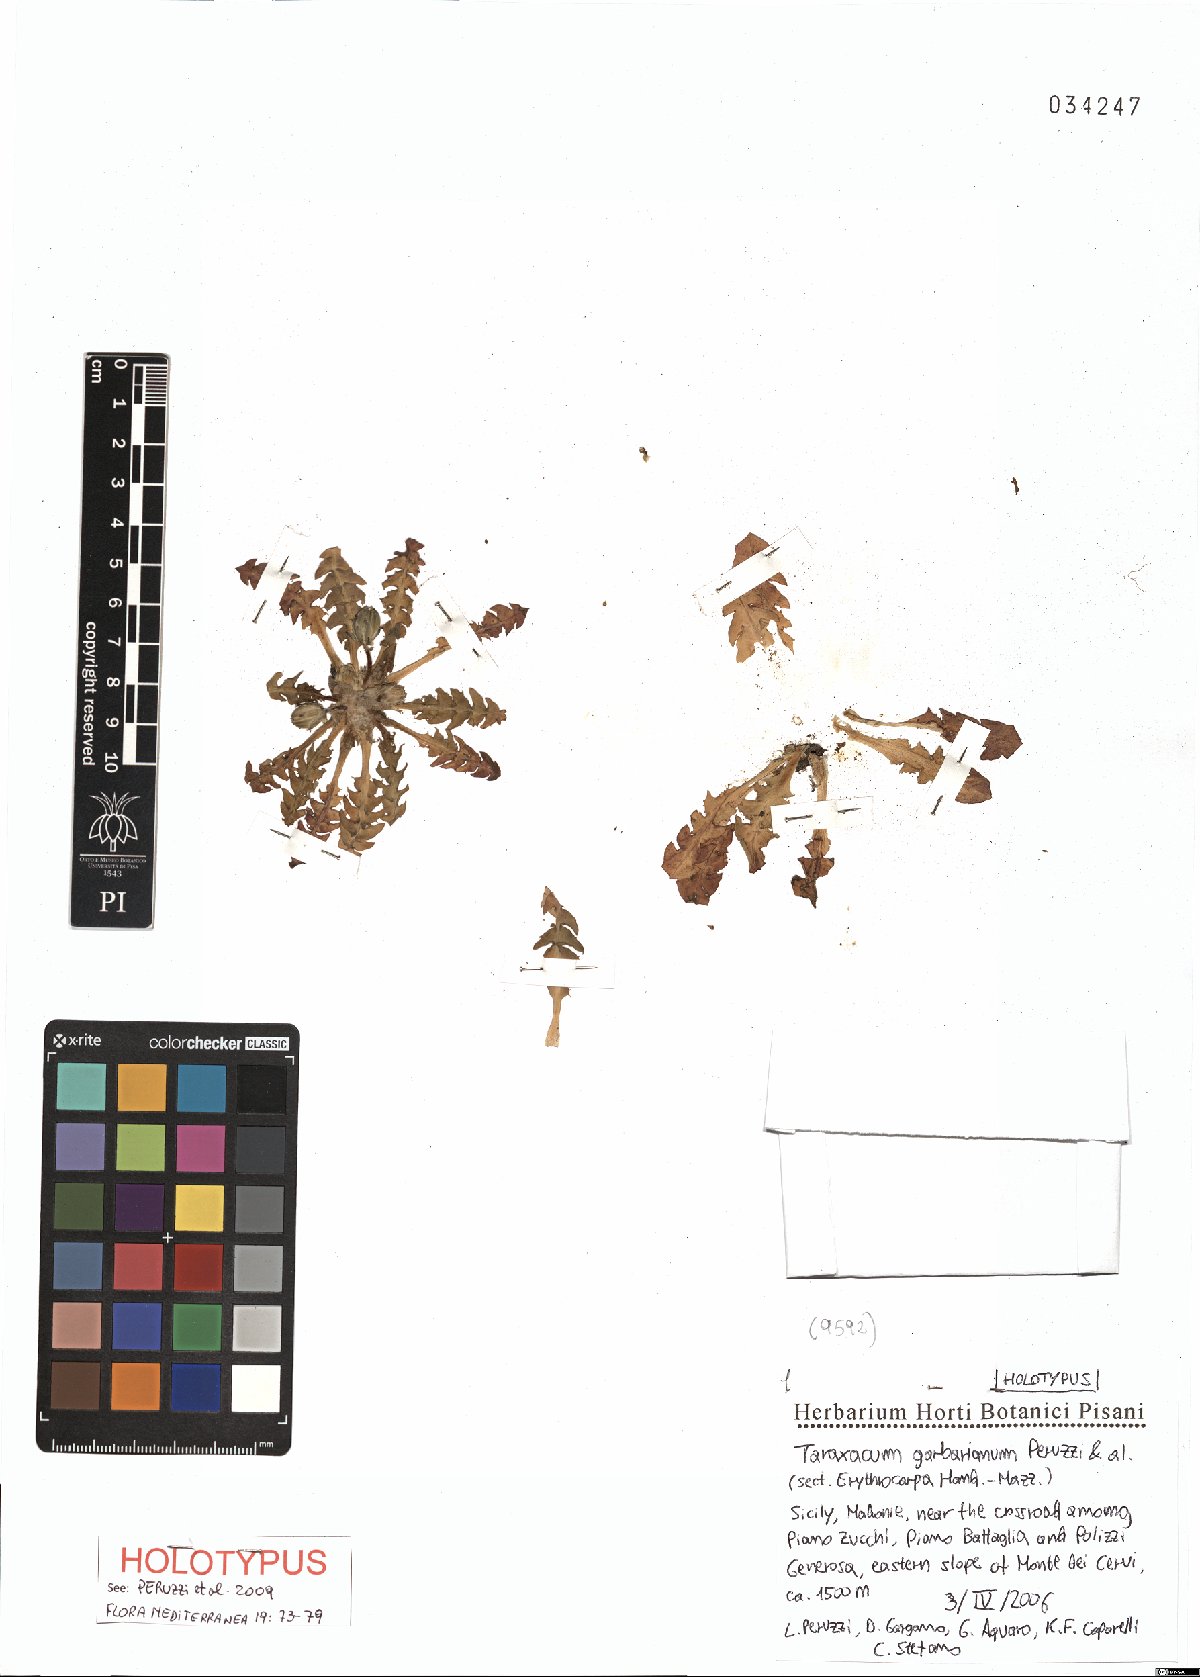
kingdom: Plantae
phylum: Tracheophyta
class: Magnoliopsida
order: Asterales
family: Asteraceae
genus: Taraxacum
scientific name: Taraxacum garbarianum
